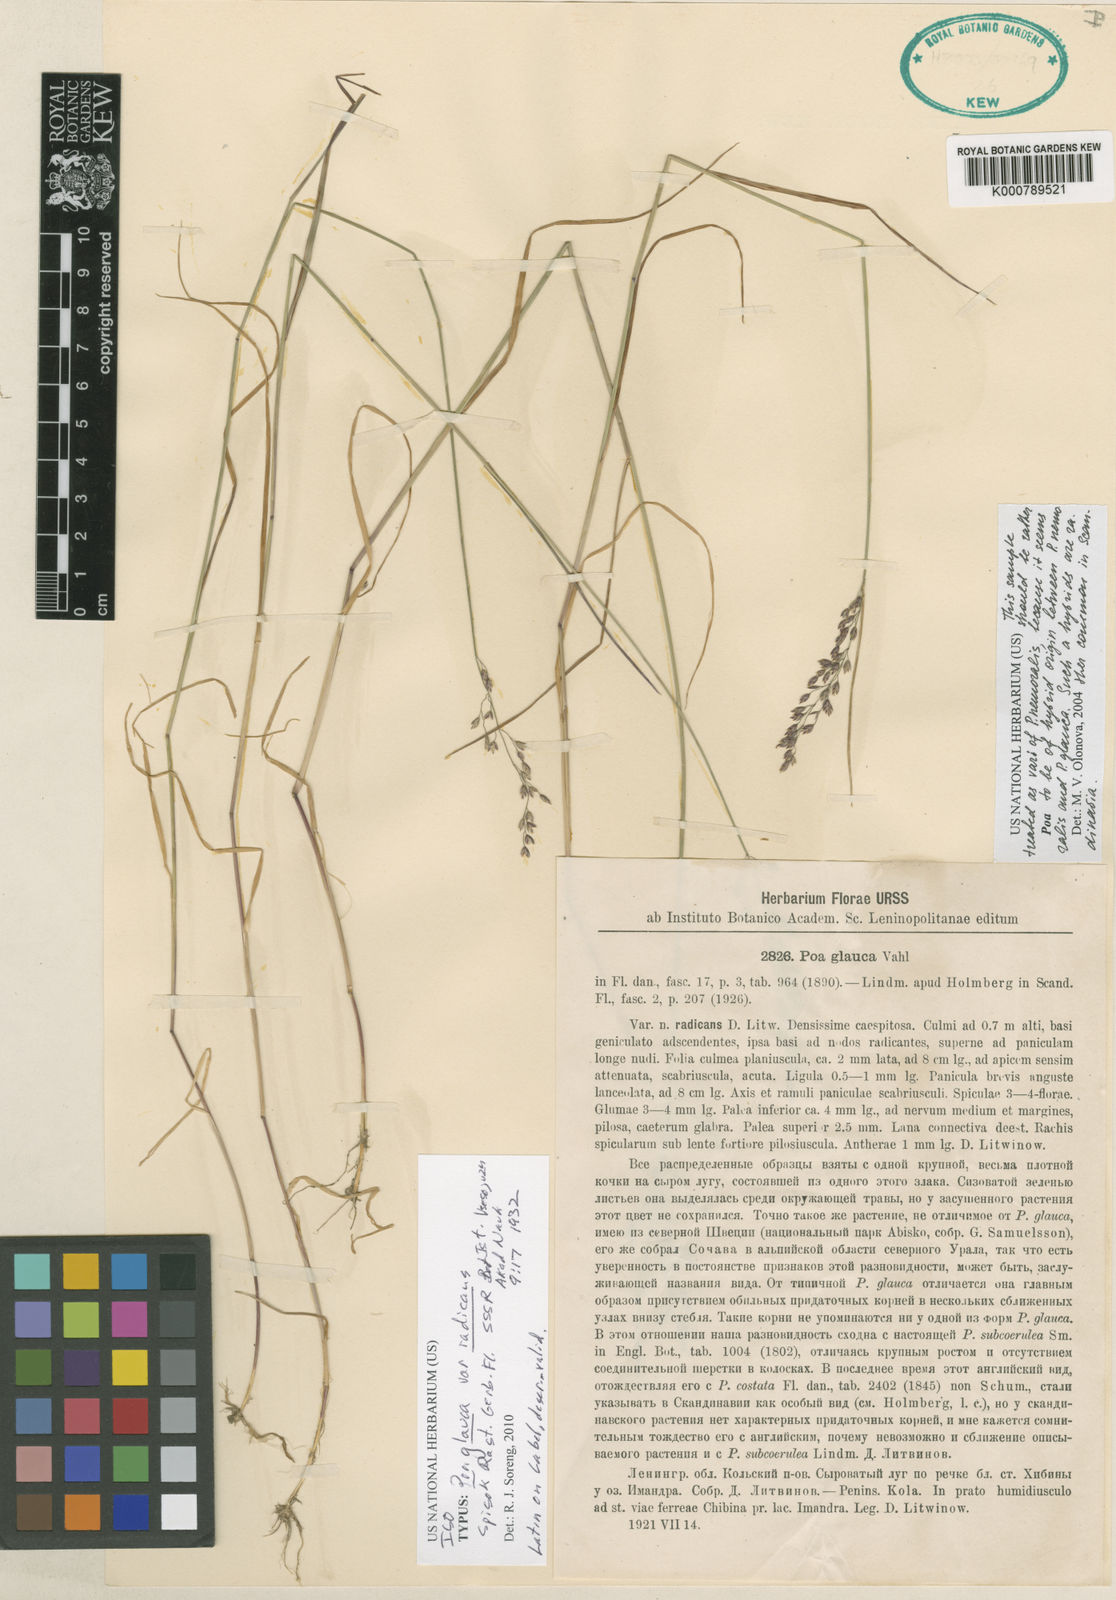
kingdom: Plantae
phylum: Tracheophyta
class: Liliopsida
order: Poales
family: Poaceae
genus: Poa
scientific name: Poa glauca
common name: Glaucous bluegrass
